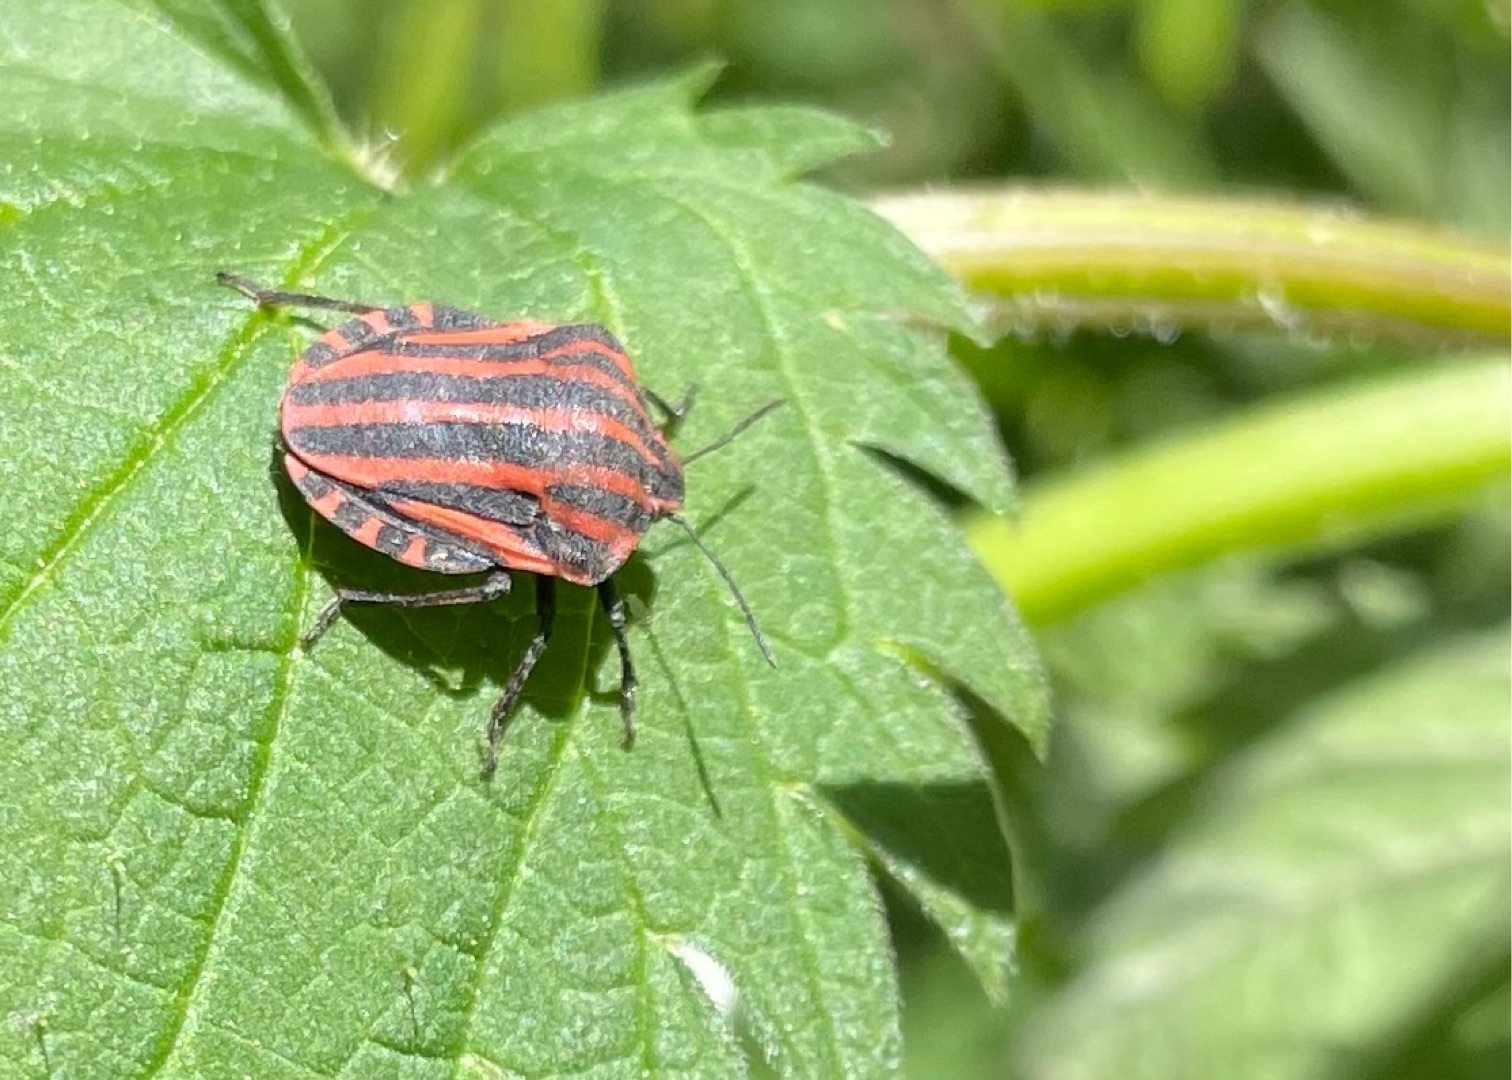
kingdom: Animalia
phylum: Arthropoda
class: Insecta
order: Hemiptera
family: Pentatomidae
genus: Graphosoma
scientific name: Graphosoma italicum
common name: Stribetæge
